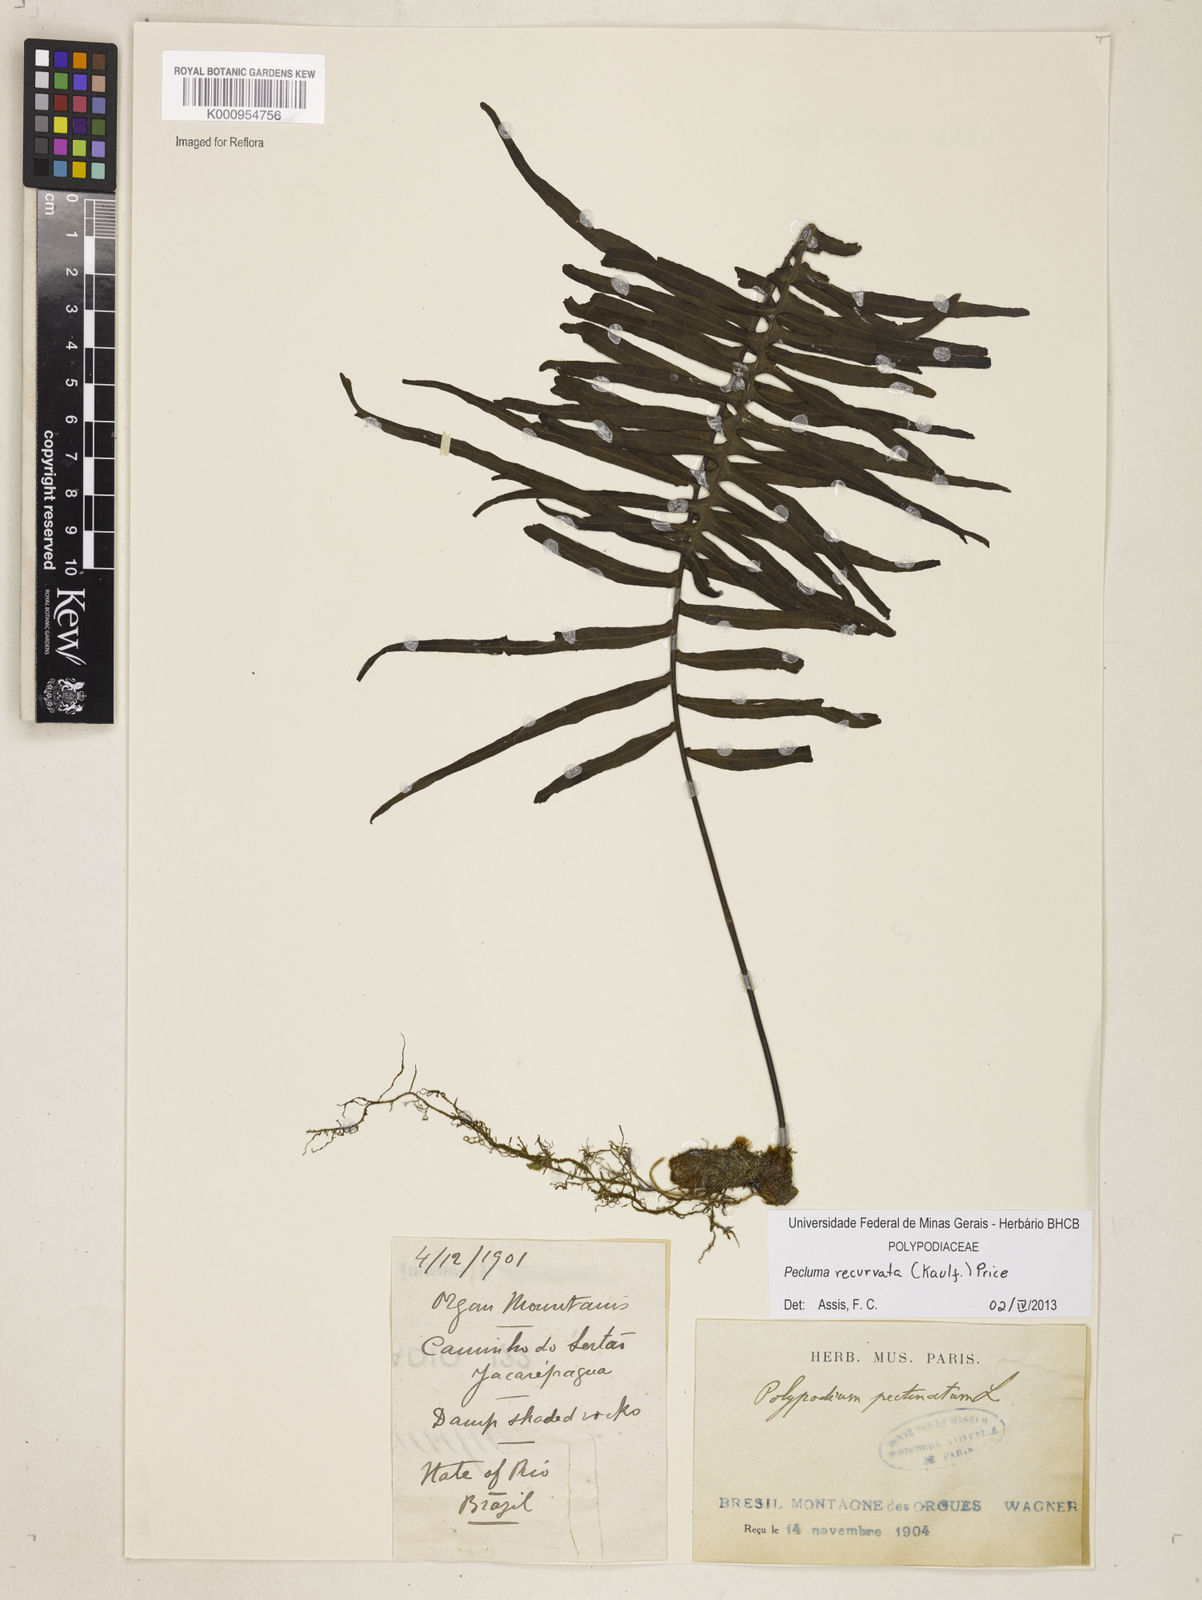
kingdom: Plantae
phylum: Tracheophyta
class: Polypodiopsida
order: Polypodiales
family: Polypodiaceae
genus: Pecluma
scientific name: Pecluma recurvata
